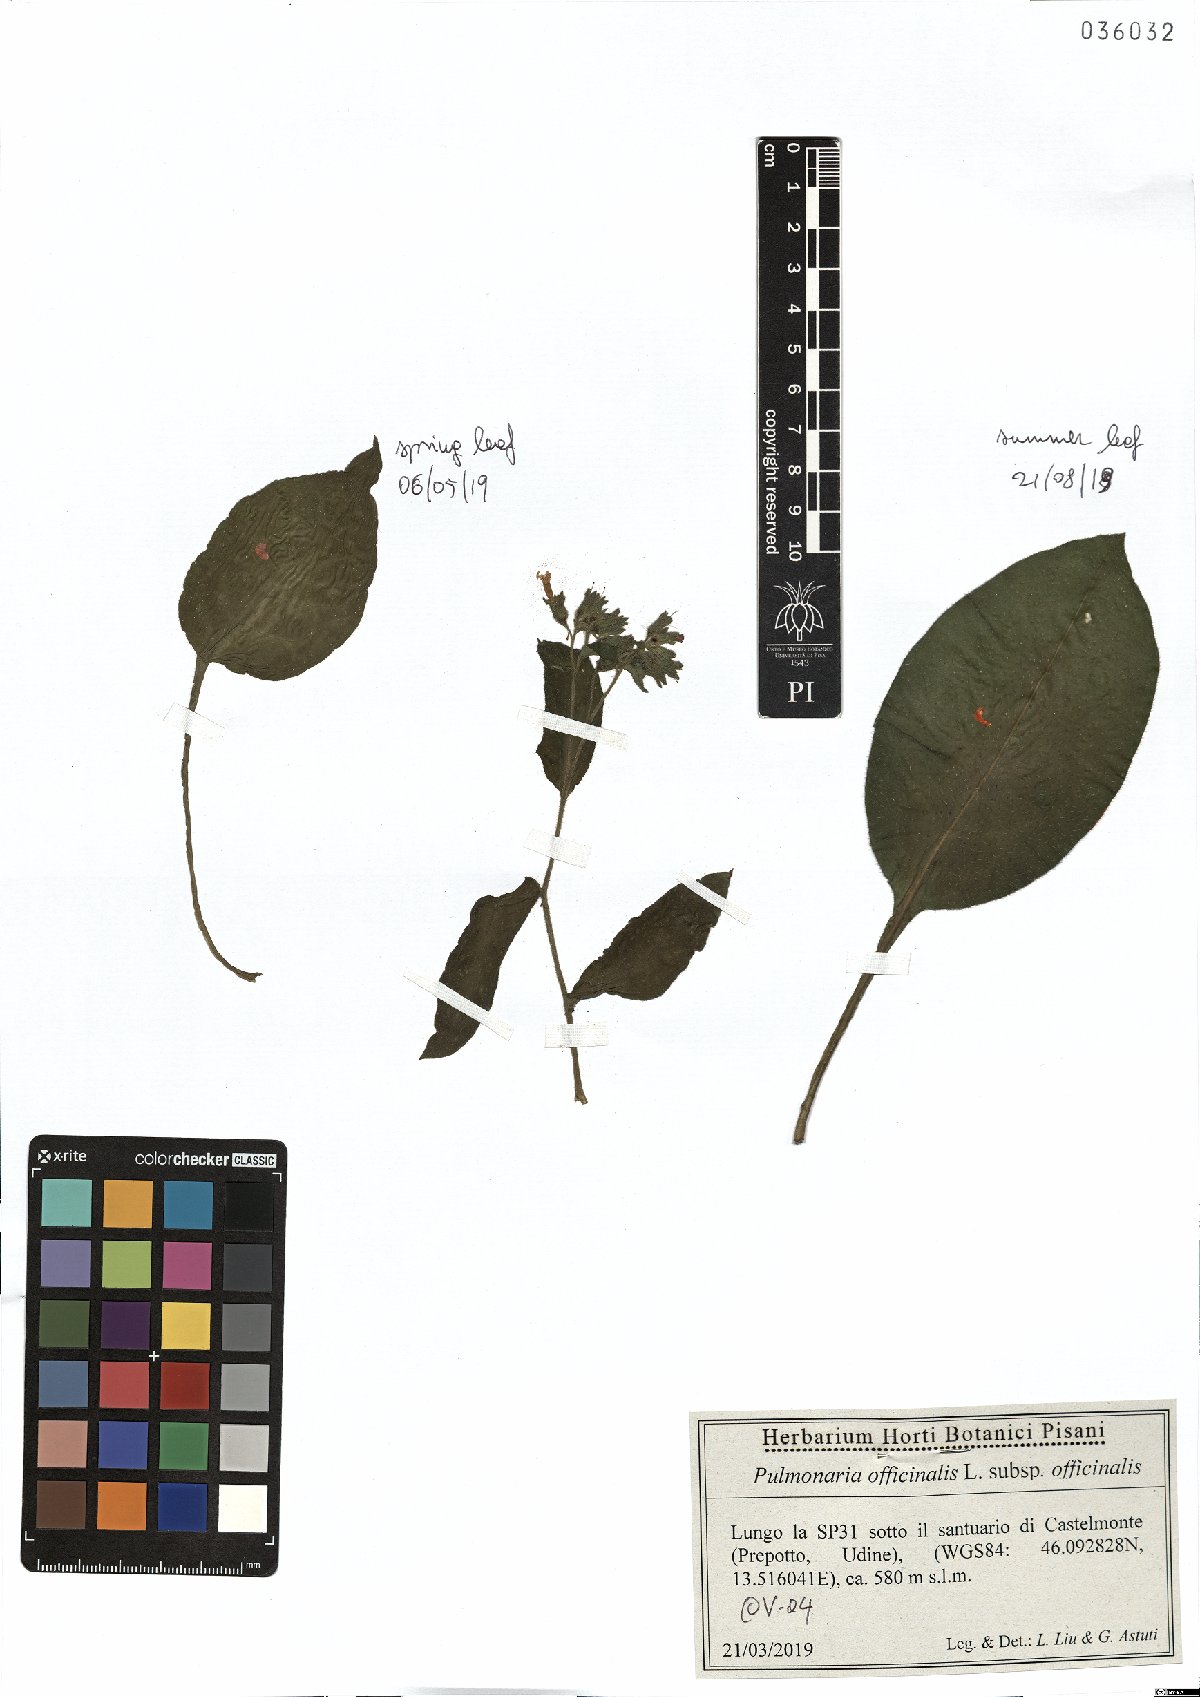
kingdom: Plantae
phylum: Tracheophyta
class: Magnoliopsida
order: Boraginales
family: Boraginaceae
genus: Pulmonaria
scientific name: Pulmonaria officinalis
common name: Lungwort
